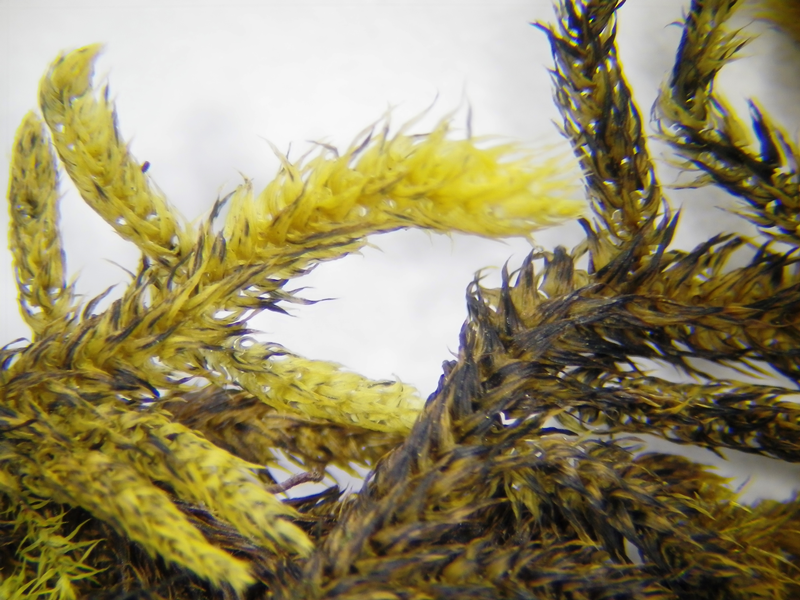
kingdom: Plantae
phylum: Bryophyta
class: Bryopsida
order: Hypnales
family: Meteoriaceae
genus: Trachypus
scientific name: Trachypus bicolor
